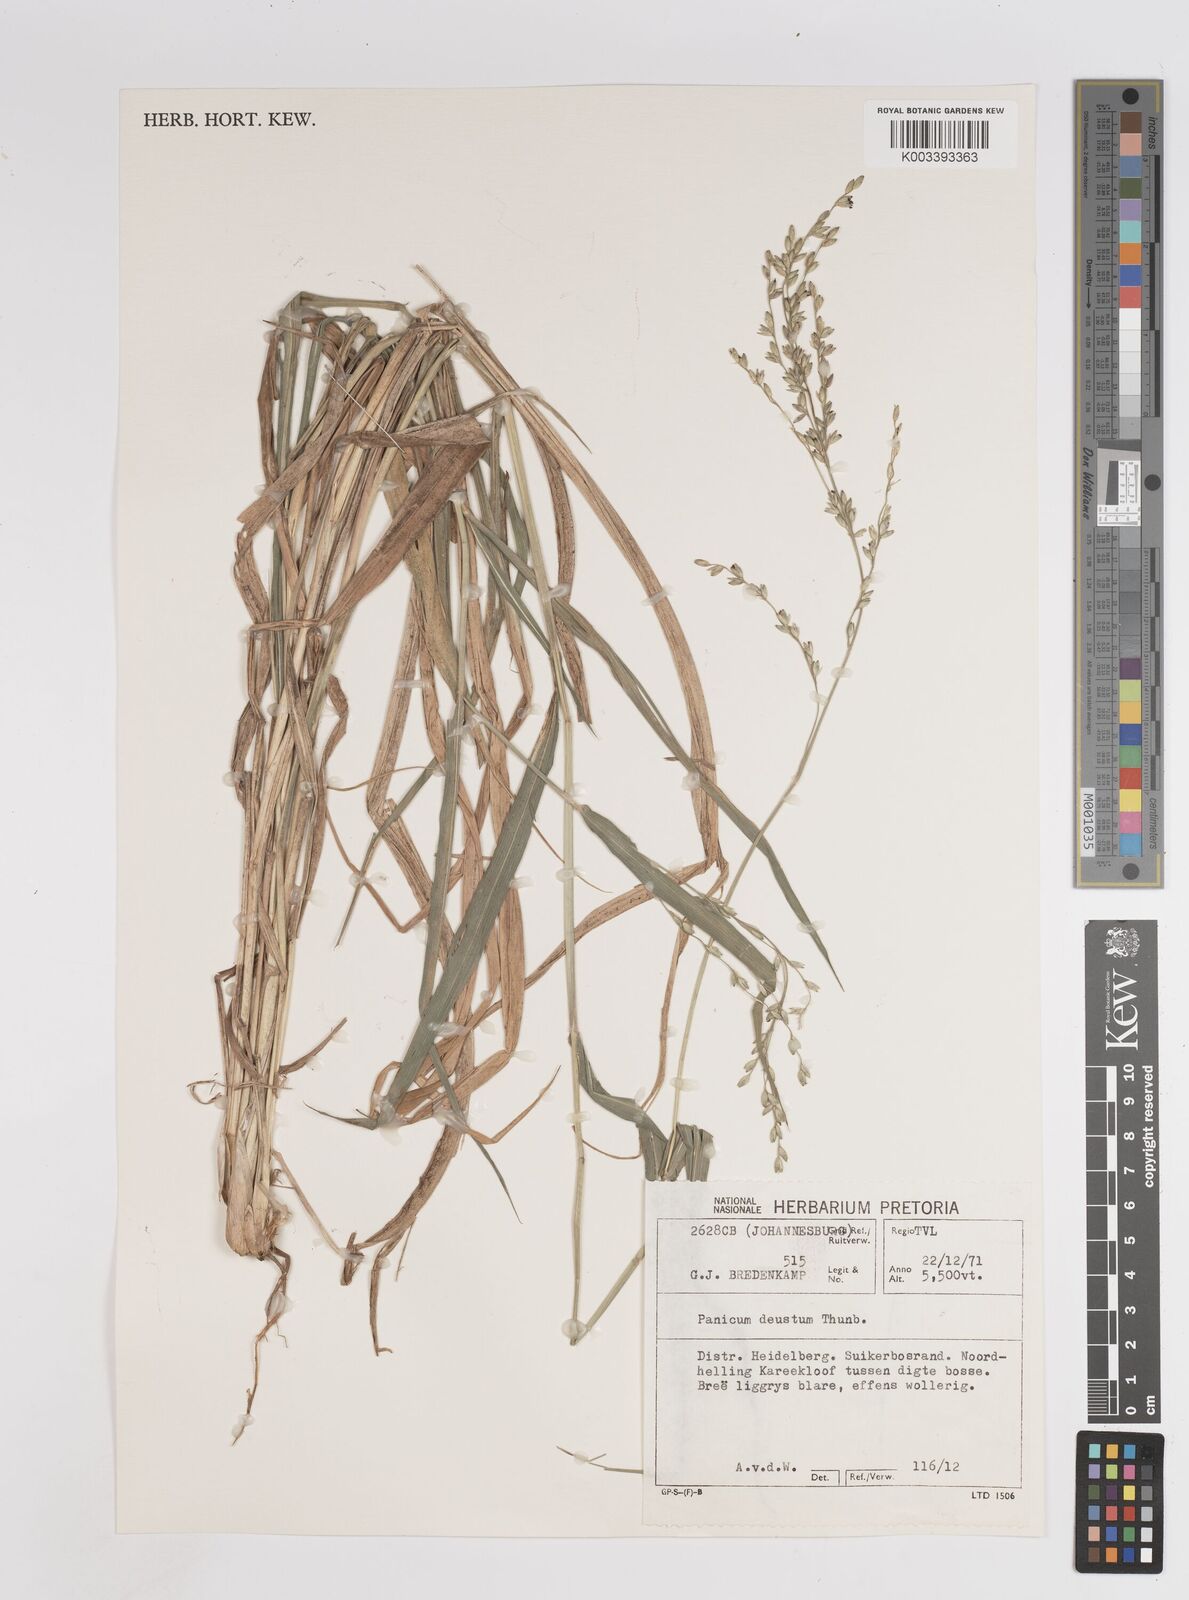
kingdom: Plantae
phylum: Tracheophyta
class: Liliopsida
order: Poales
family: Poaceae
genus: Panicum
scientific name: Panicum deustum
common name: Reed panicum
